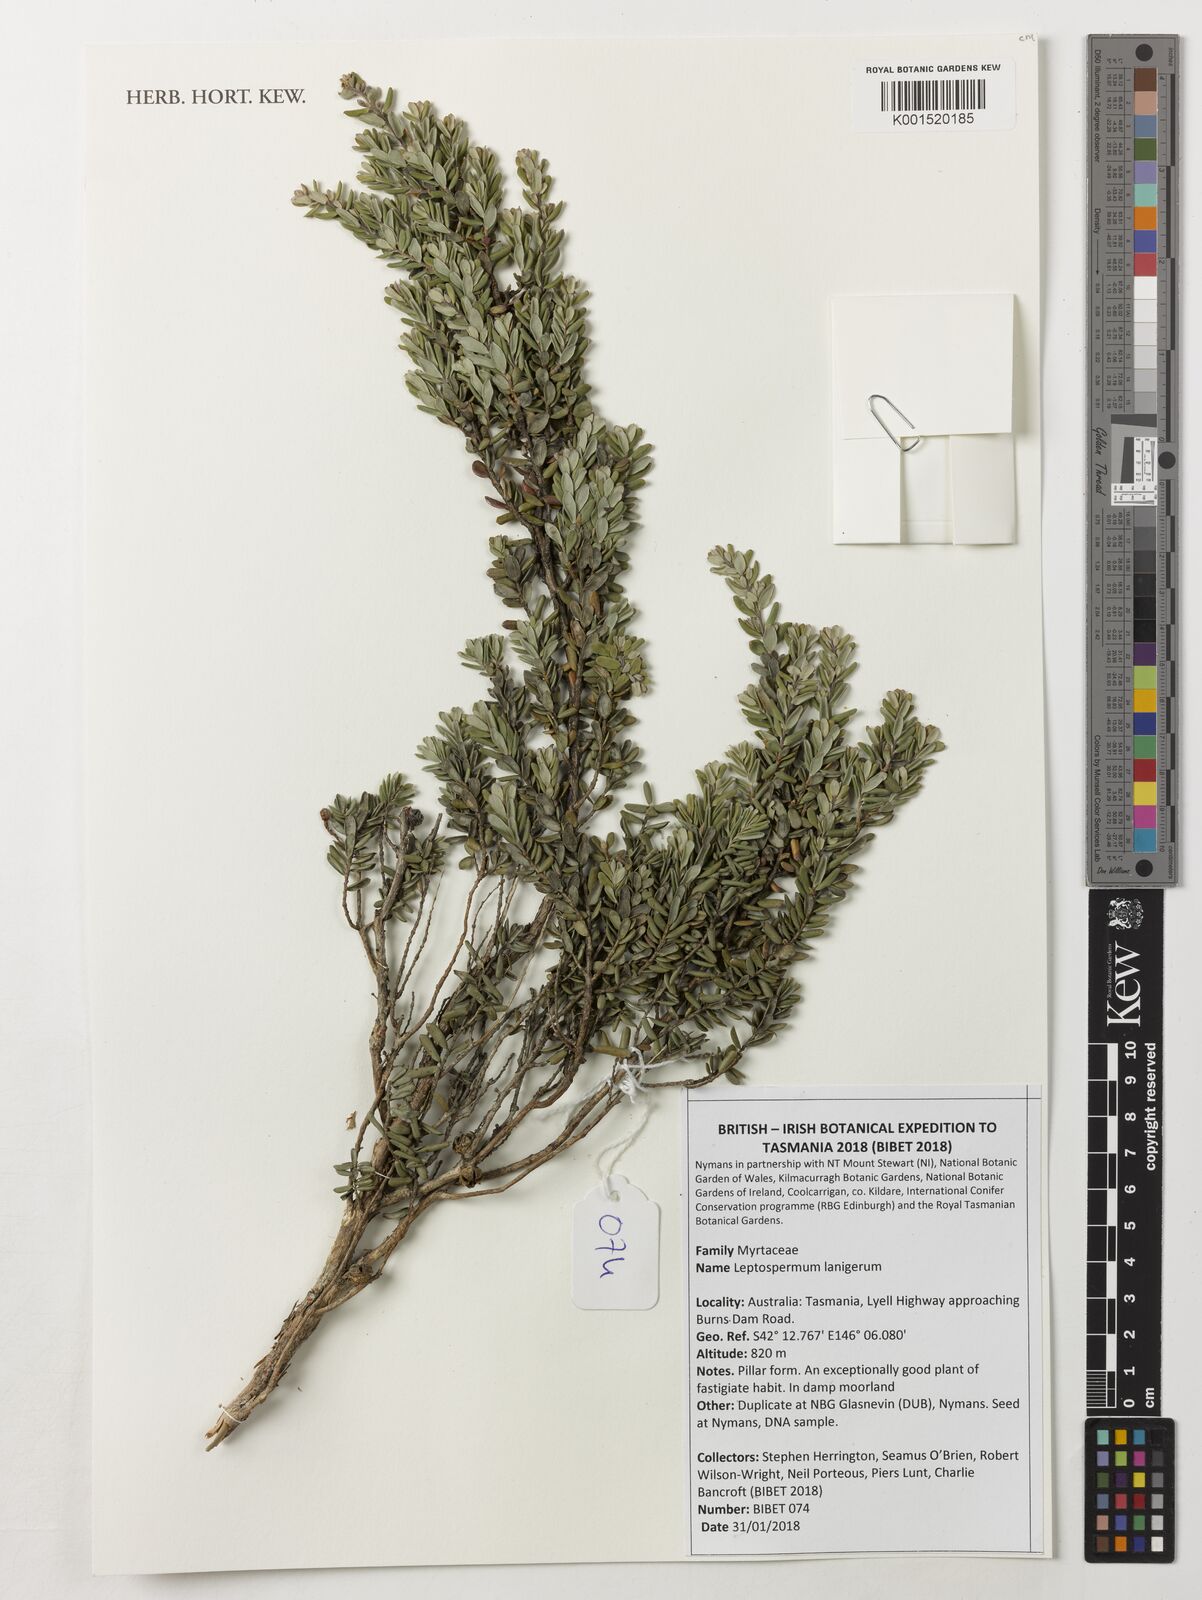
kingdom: Plantae
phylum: Tracheophyta
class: Magnoliopsida
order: Myrtales
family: Myrtaceae
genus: Leptospermum
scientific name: Leptospermum lanigerum
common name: Woolly tea-tree
